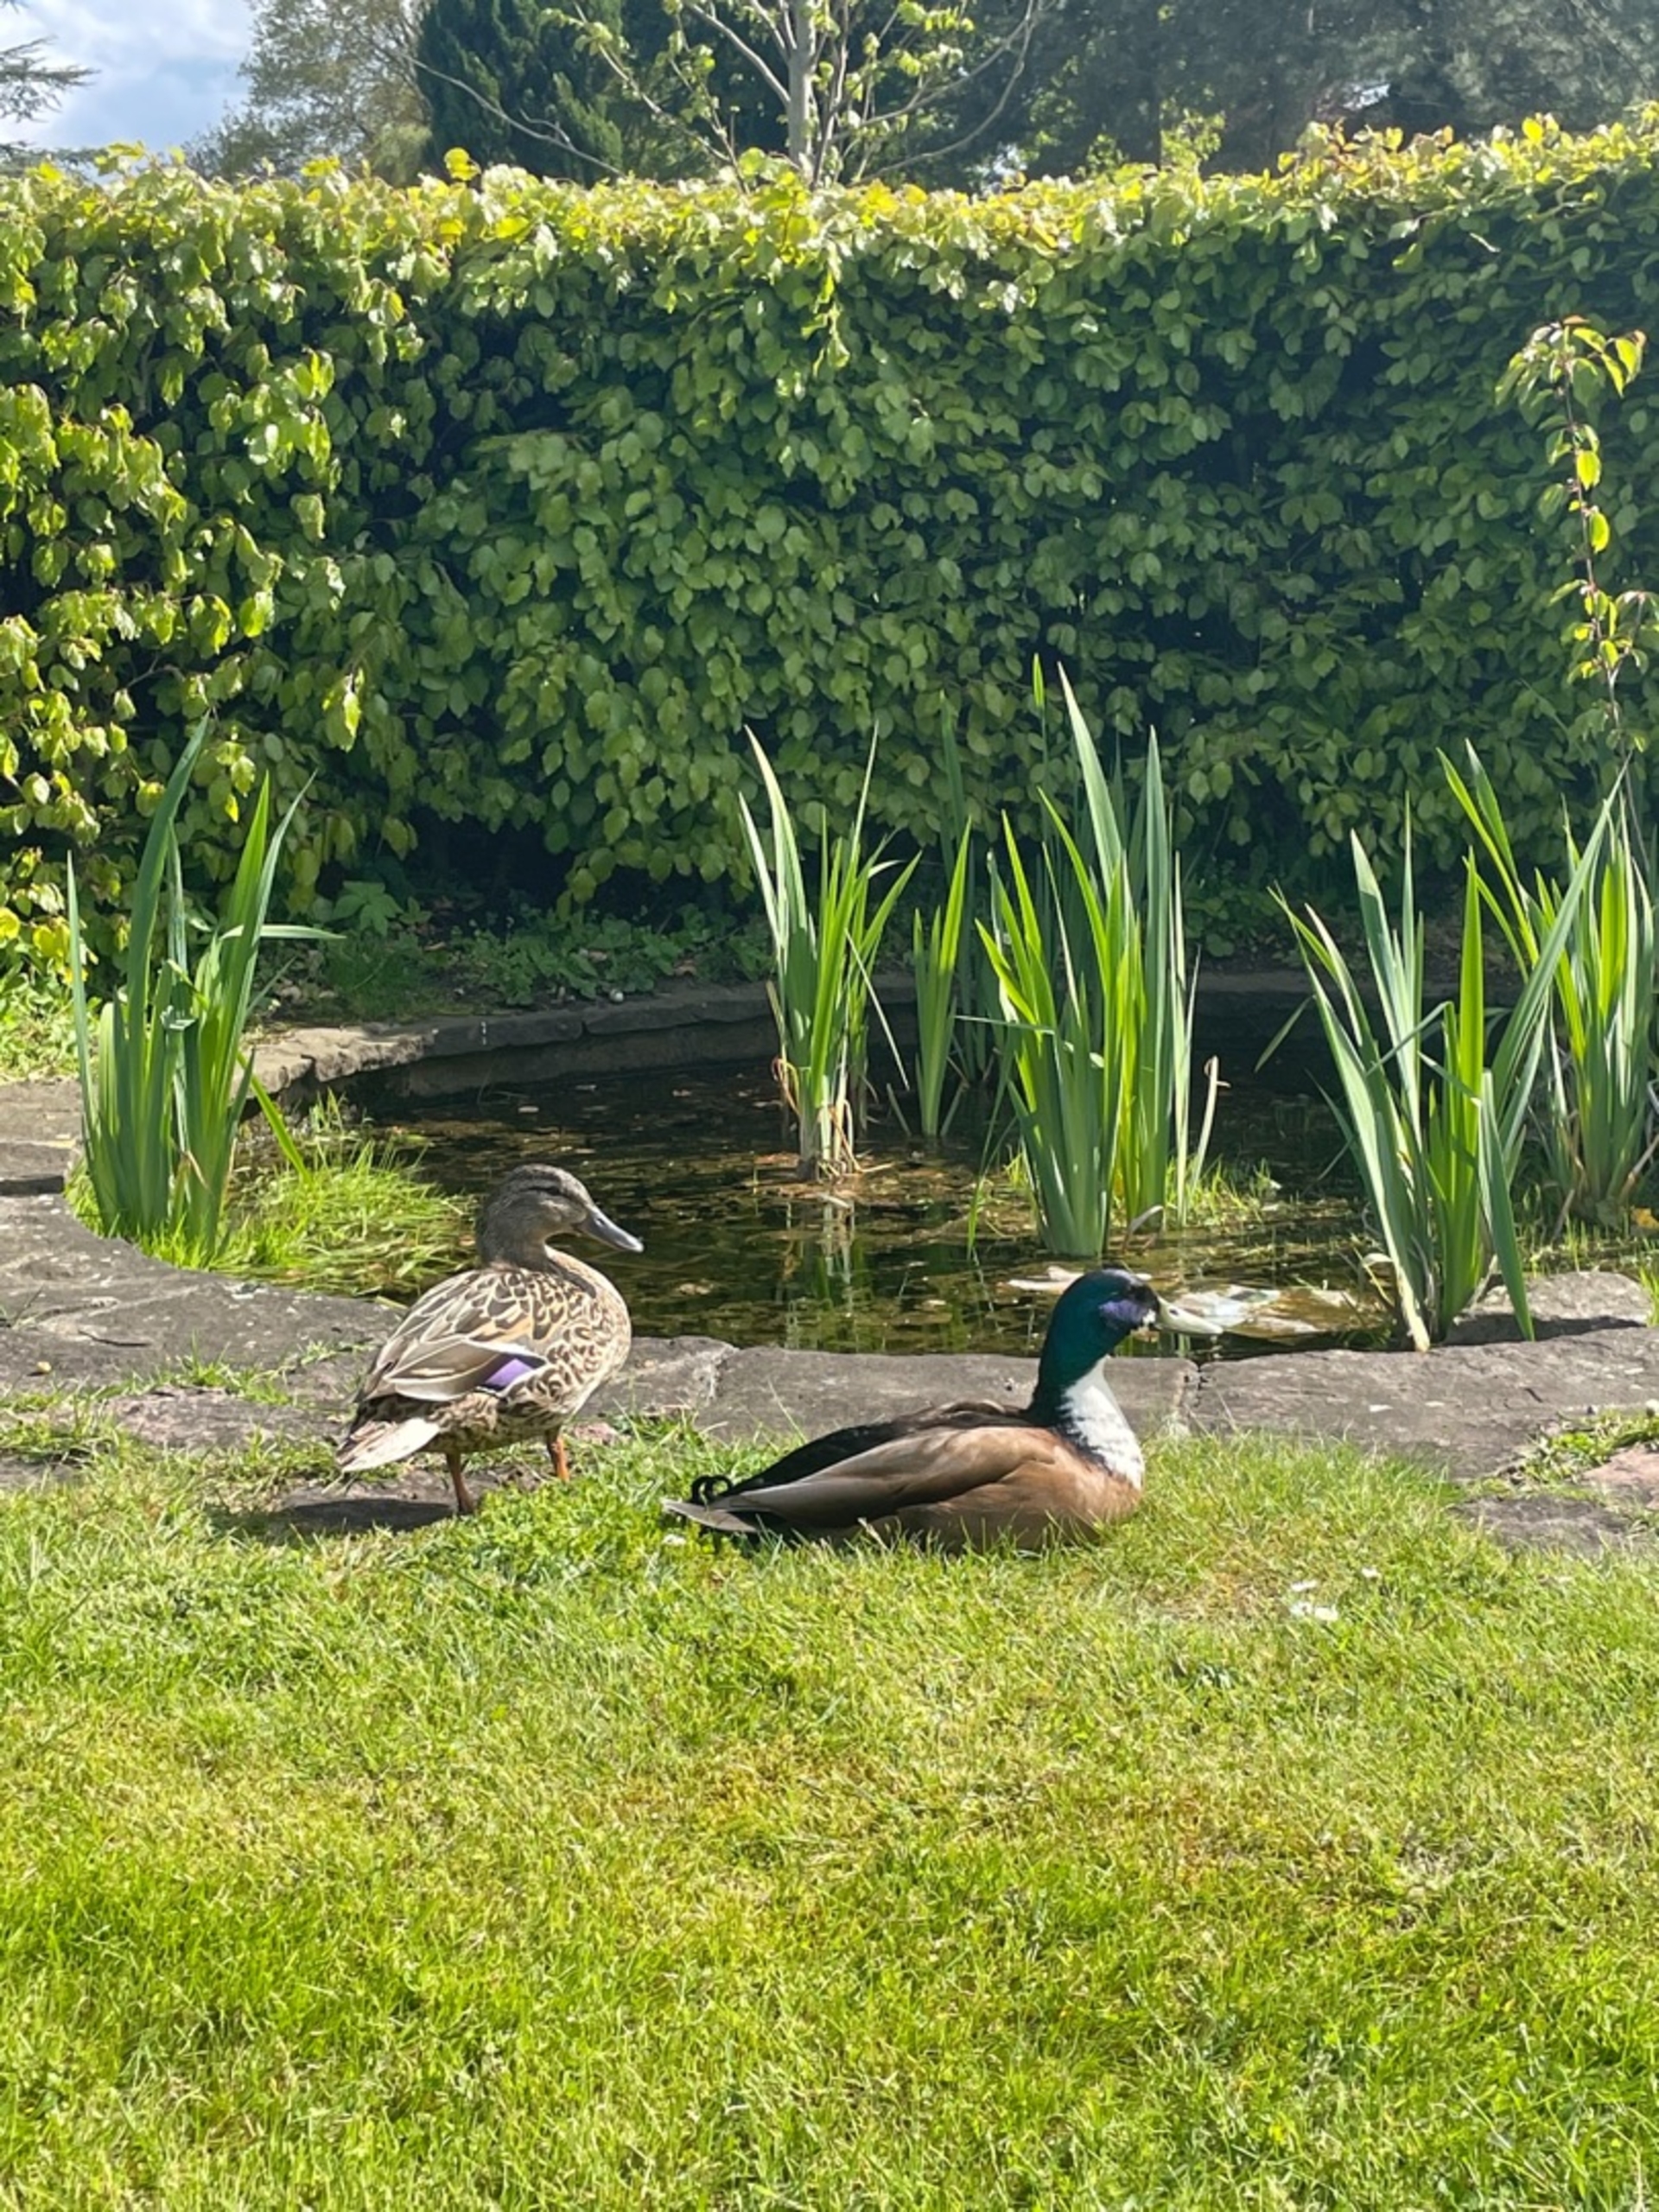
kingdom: Animalia
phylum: Chordata
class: Aves
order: Anseriformes
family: Anatidae
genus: Anas
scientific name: Anas platyrhynchos
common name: Gråand
